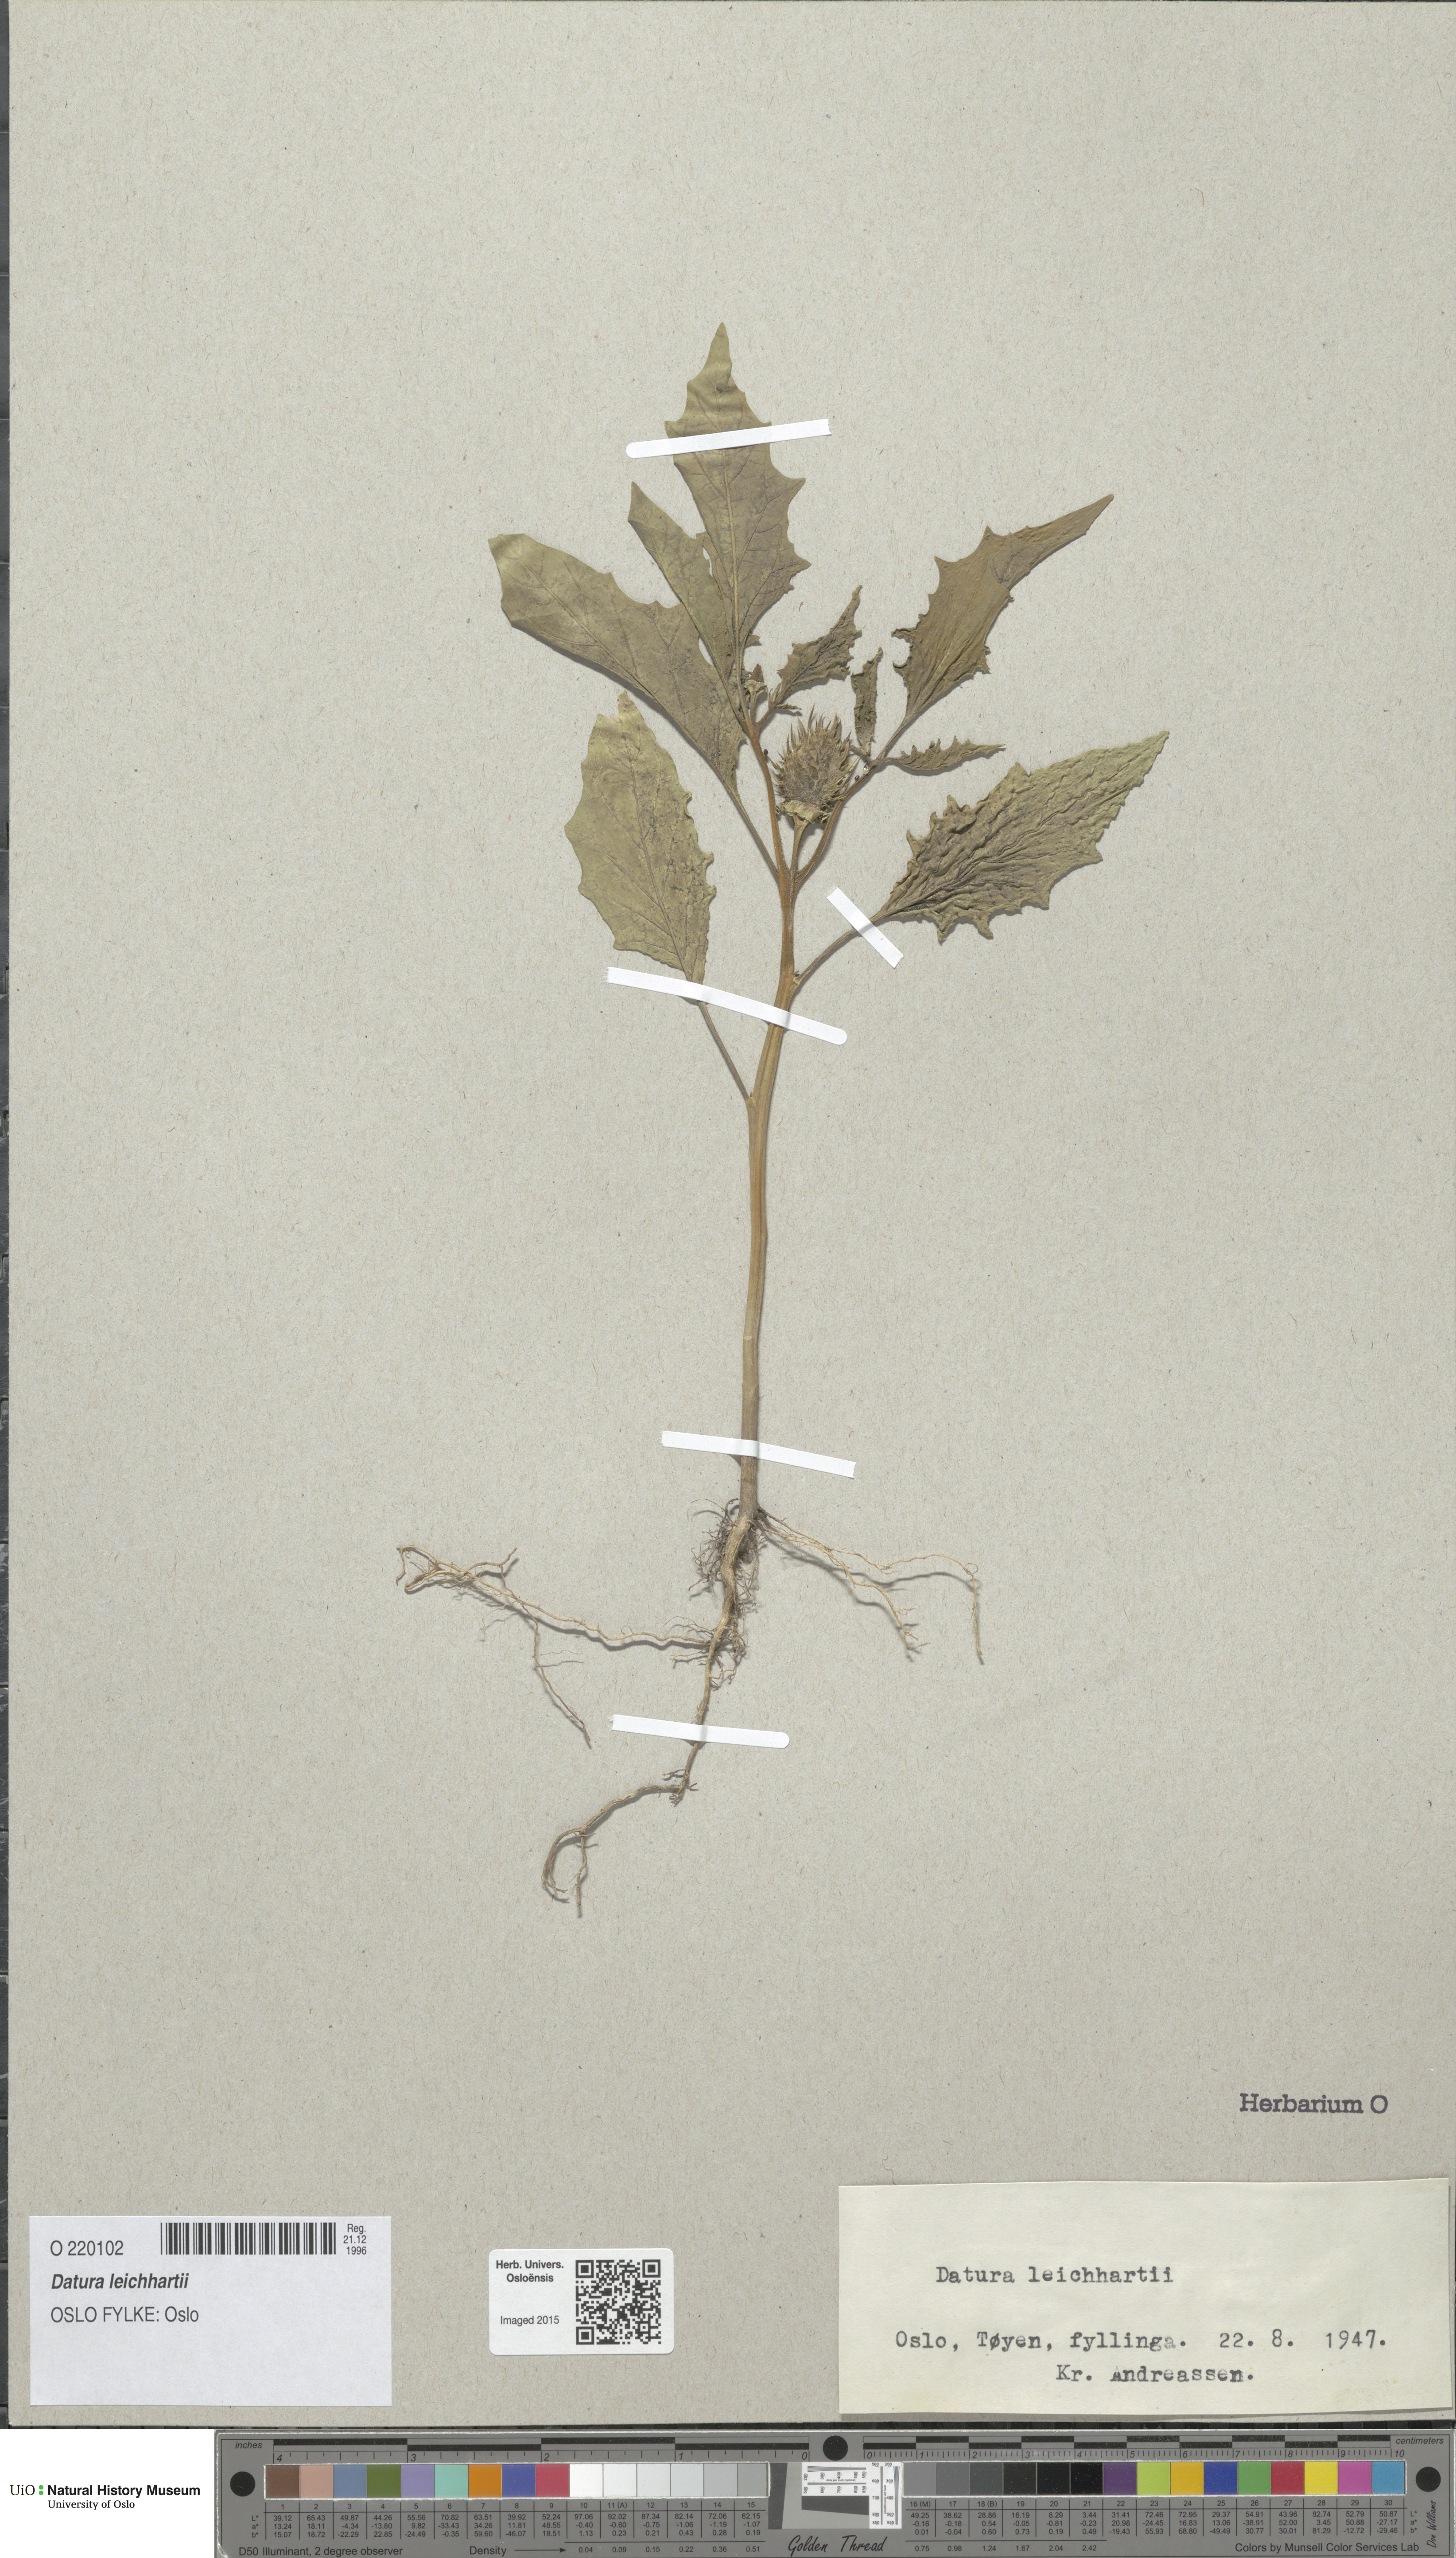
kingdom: Plantae
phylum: Tracheophyta
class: Magnoliopsida
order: Solanales
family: Solanaceae
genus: Datura
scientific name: Datura leichhardtii
